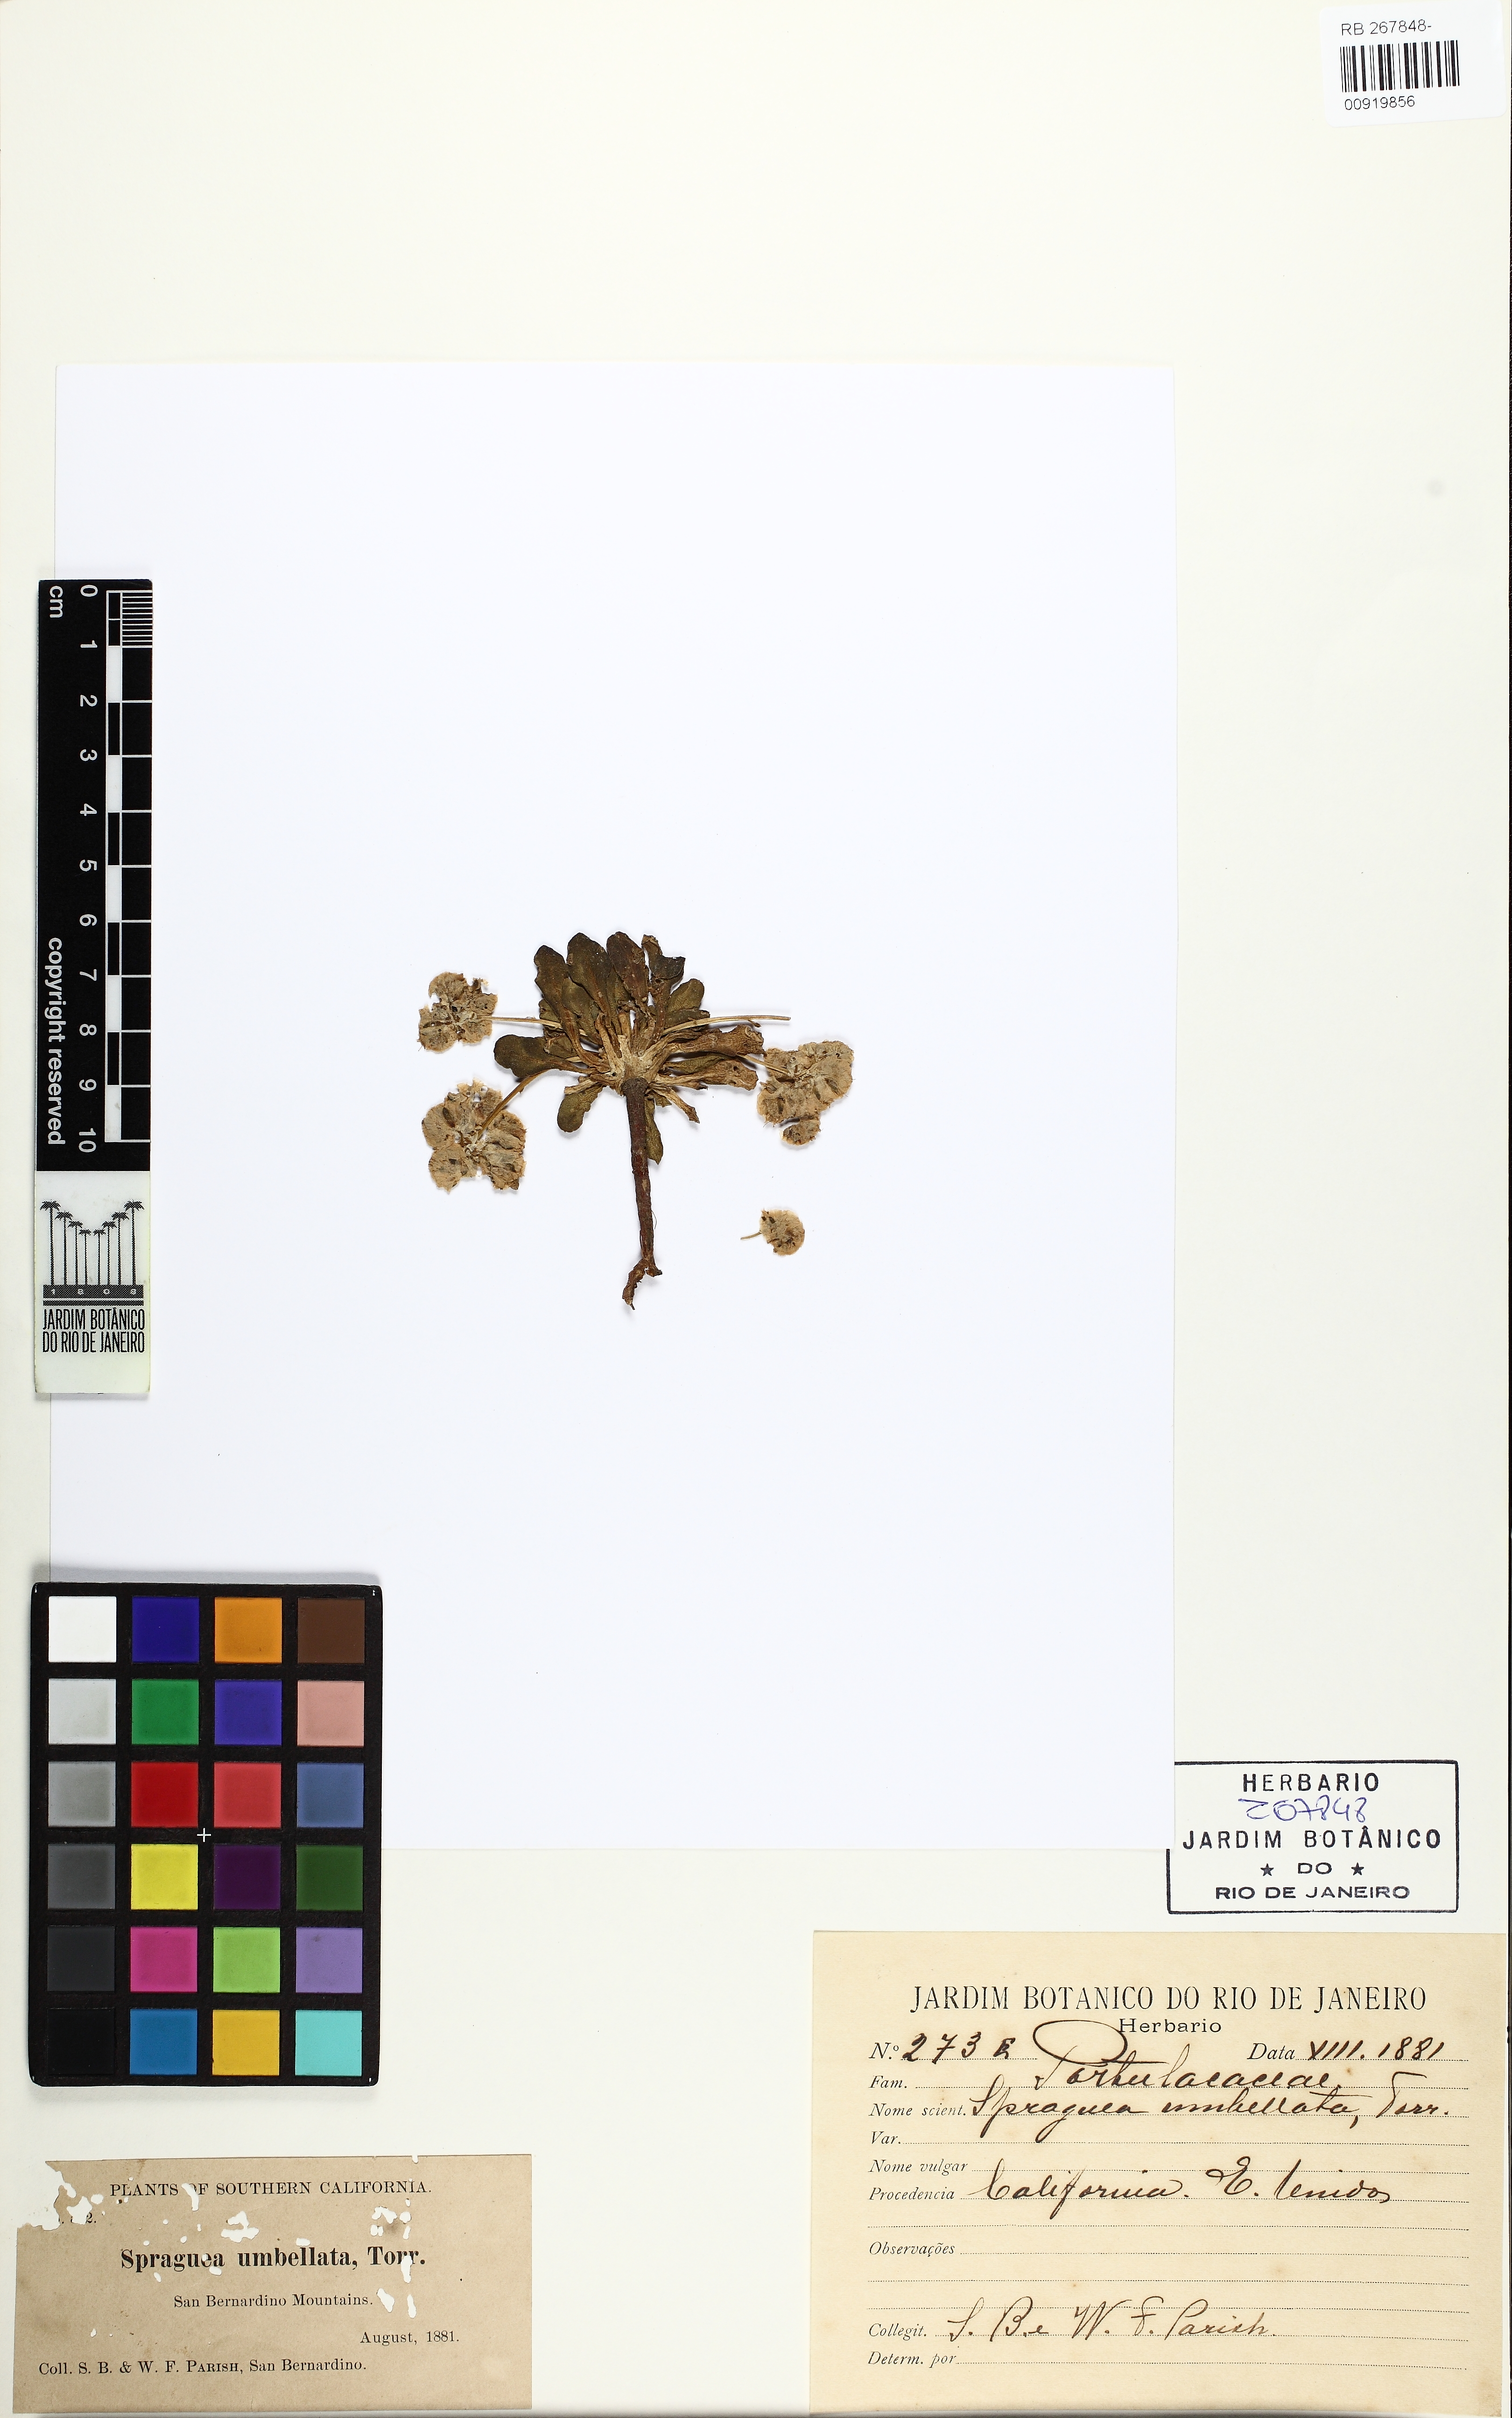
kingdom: Plantae
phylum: Tracheophyta
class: Magnoliopsida
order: Caryophyllales
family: Montiaceae
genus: Calyptridium
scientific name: Calyptridium umbellatum
